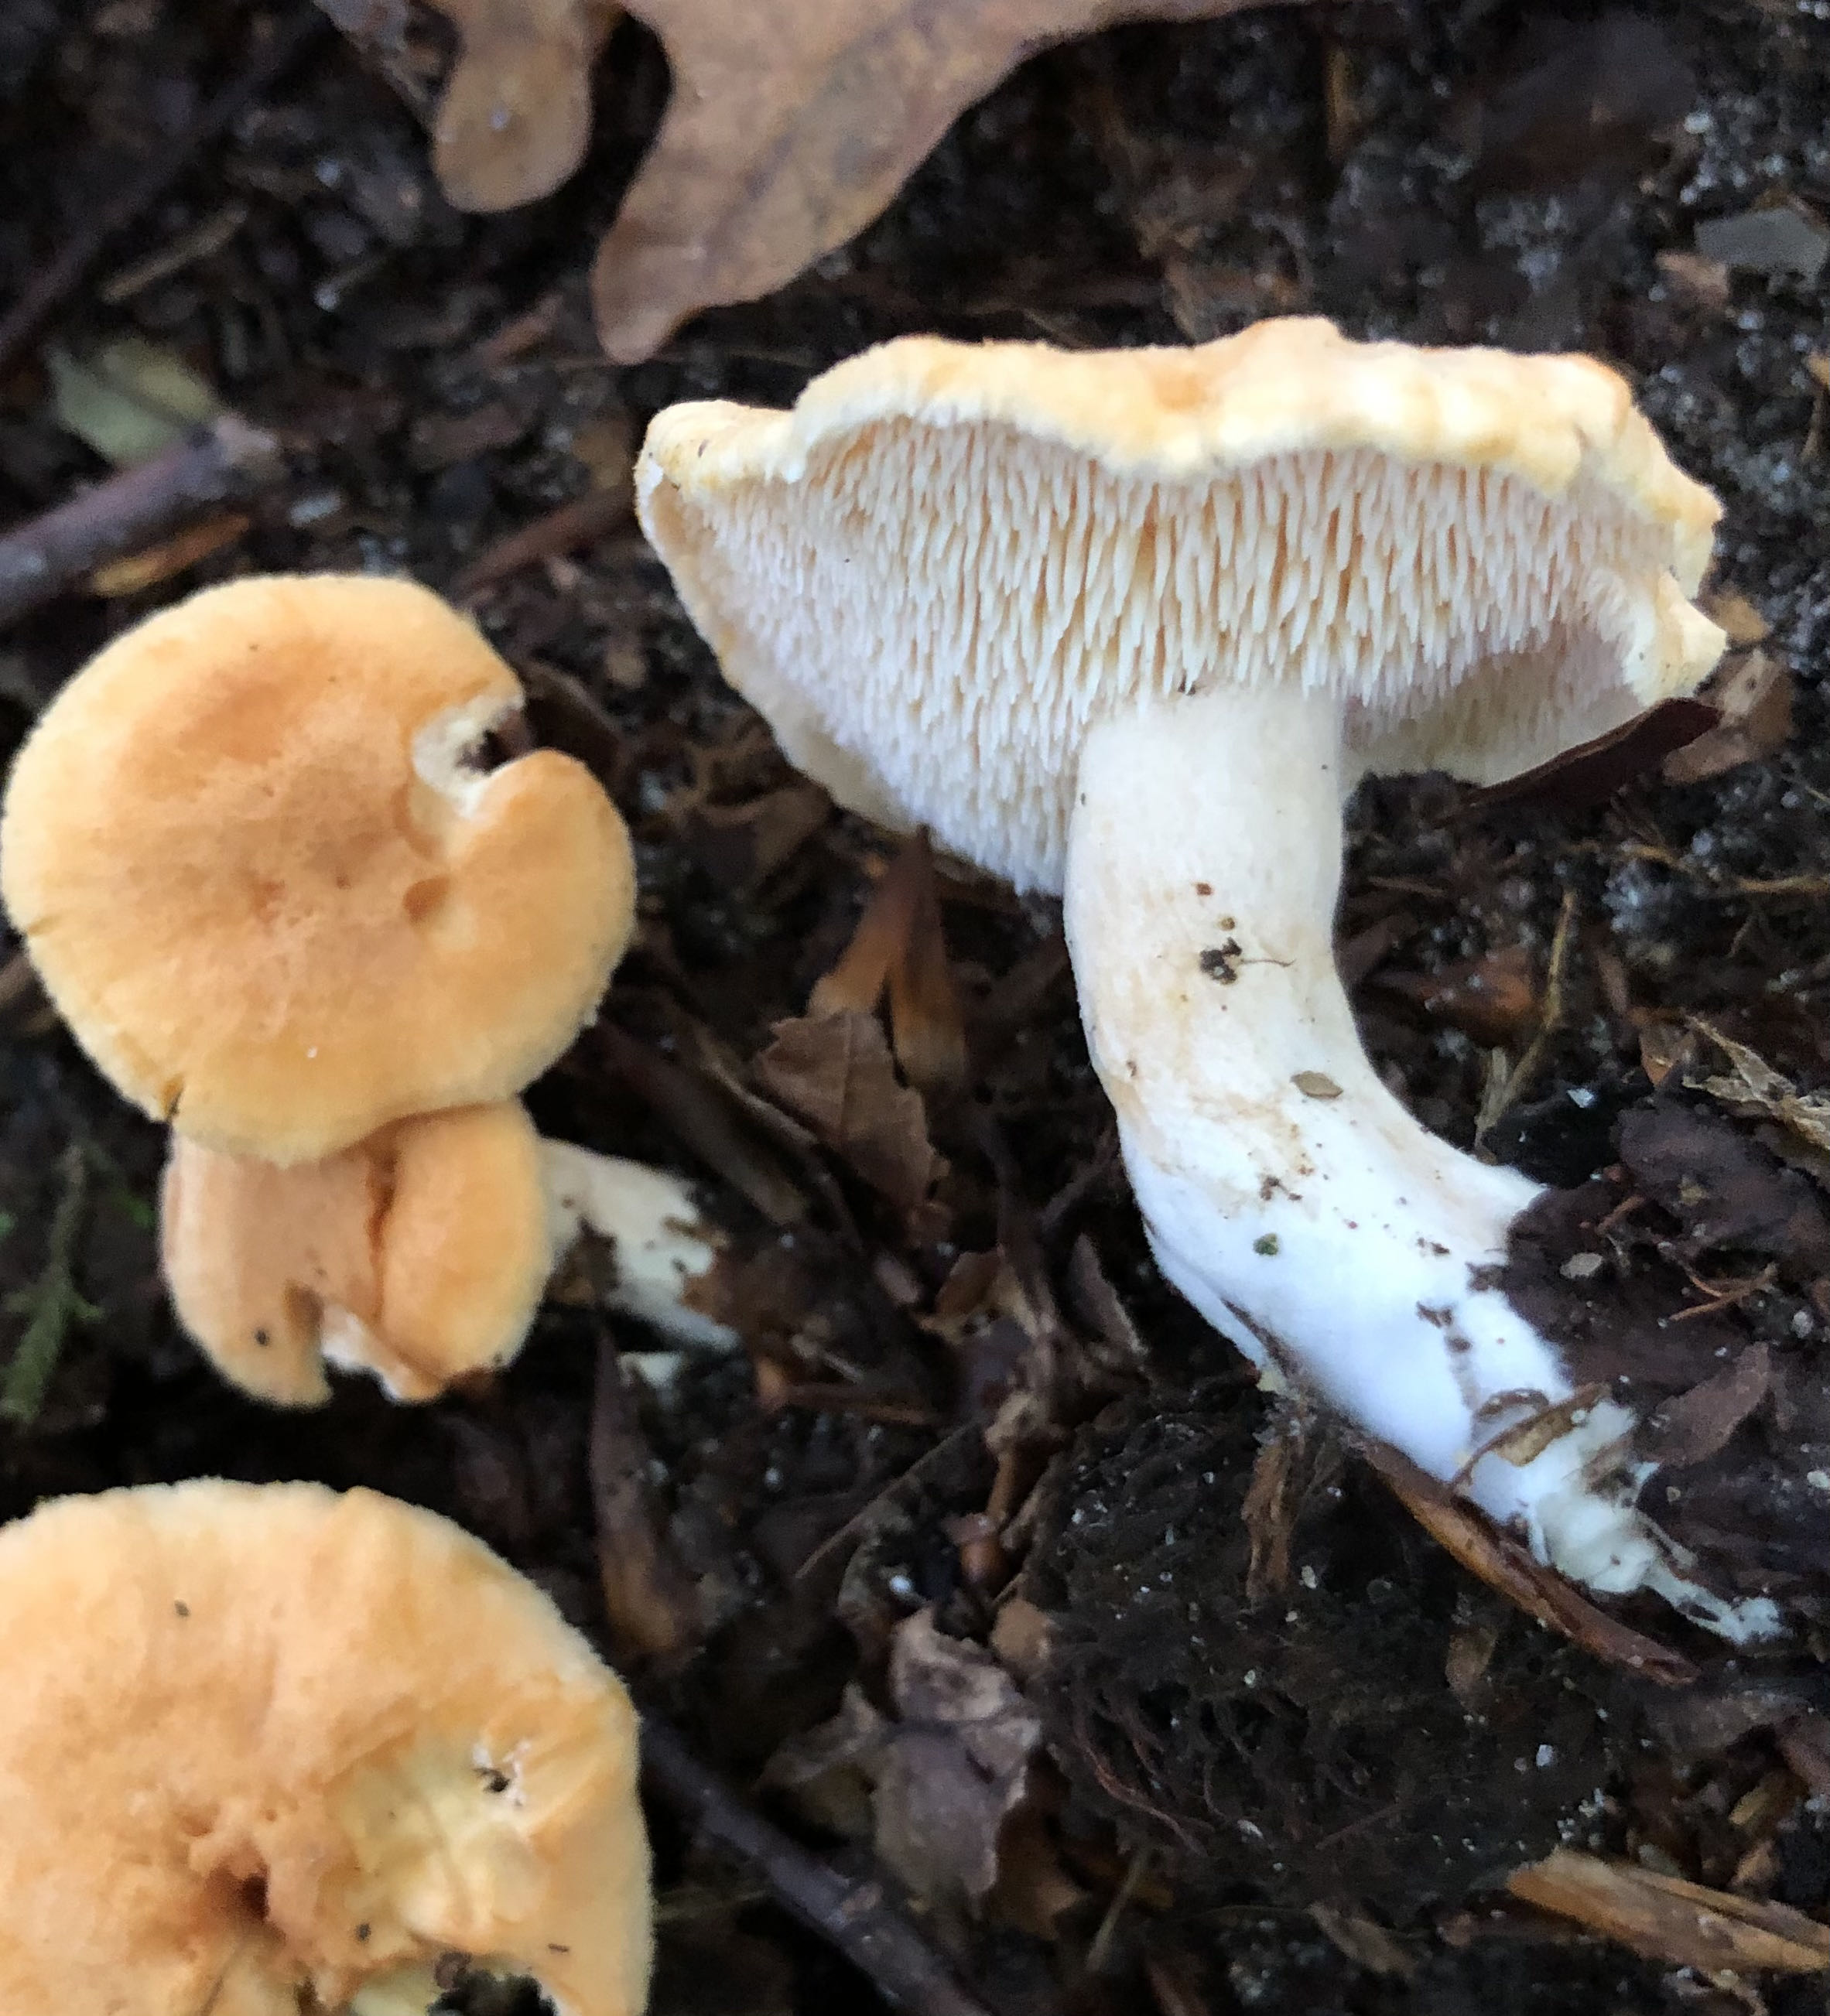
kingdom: Fungi
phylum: Basidiomycota
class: Agaricomycetes
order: Cantharellales
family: Hydnaceae
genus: Hydnum
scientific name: Hydnum rufescens
